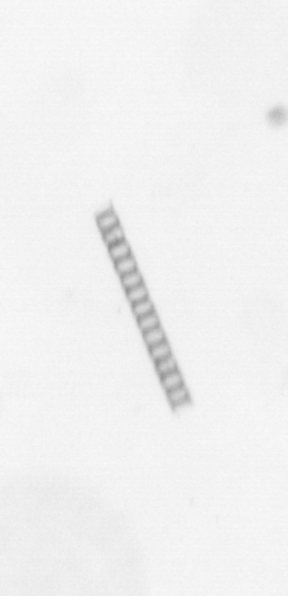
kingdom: Chromista
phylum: Ochrophyta
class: Bacillariophyceae
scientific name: Bacillariophyceae
